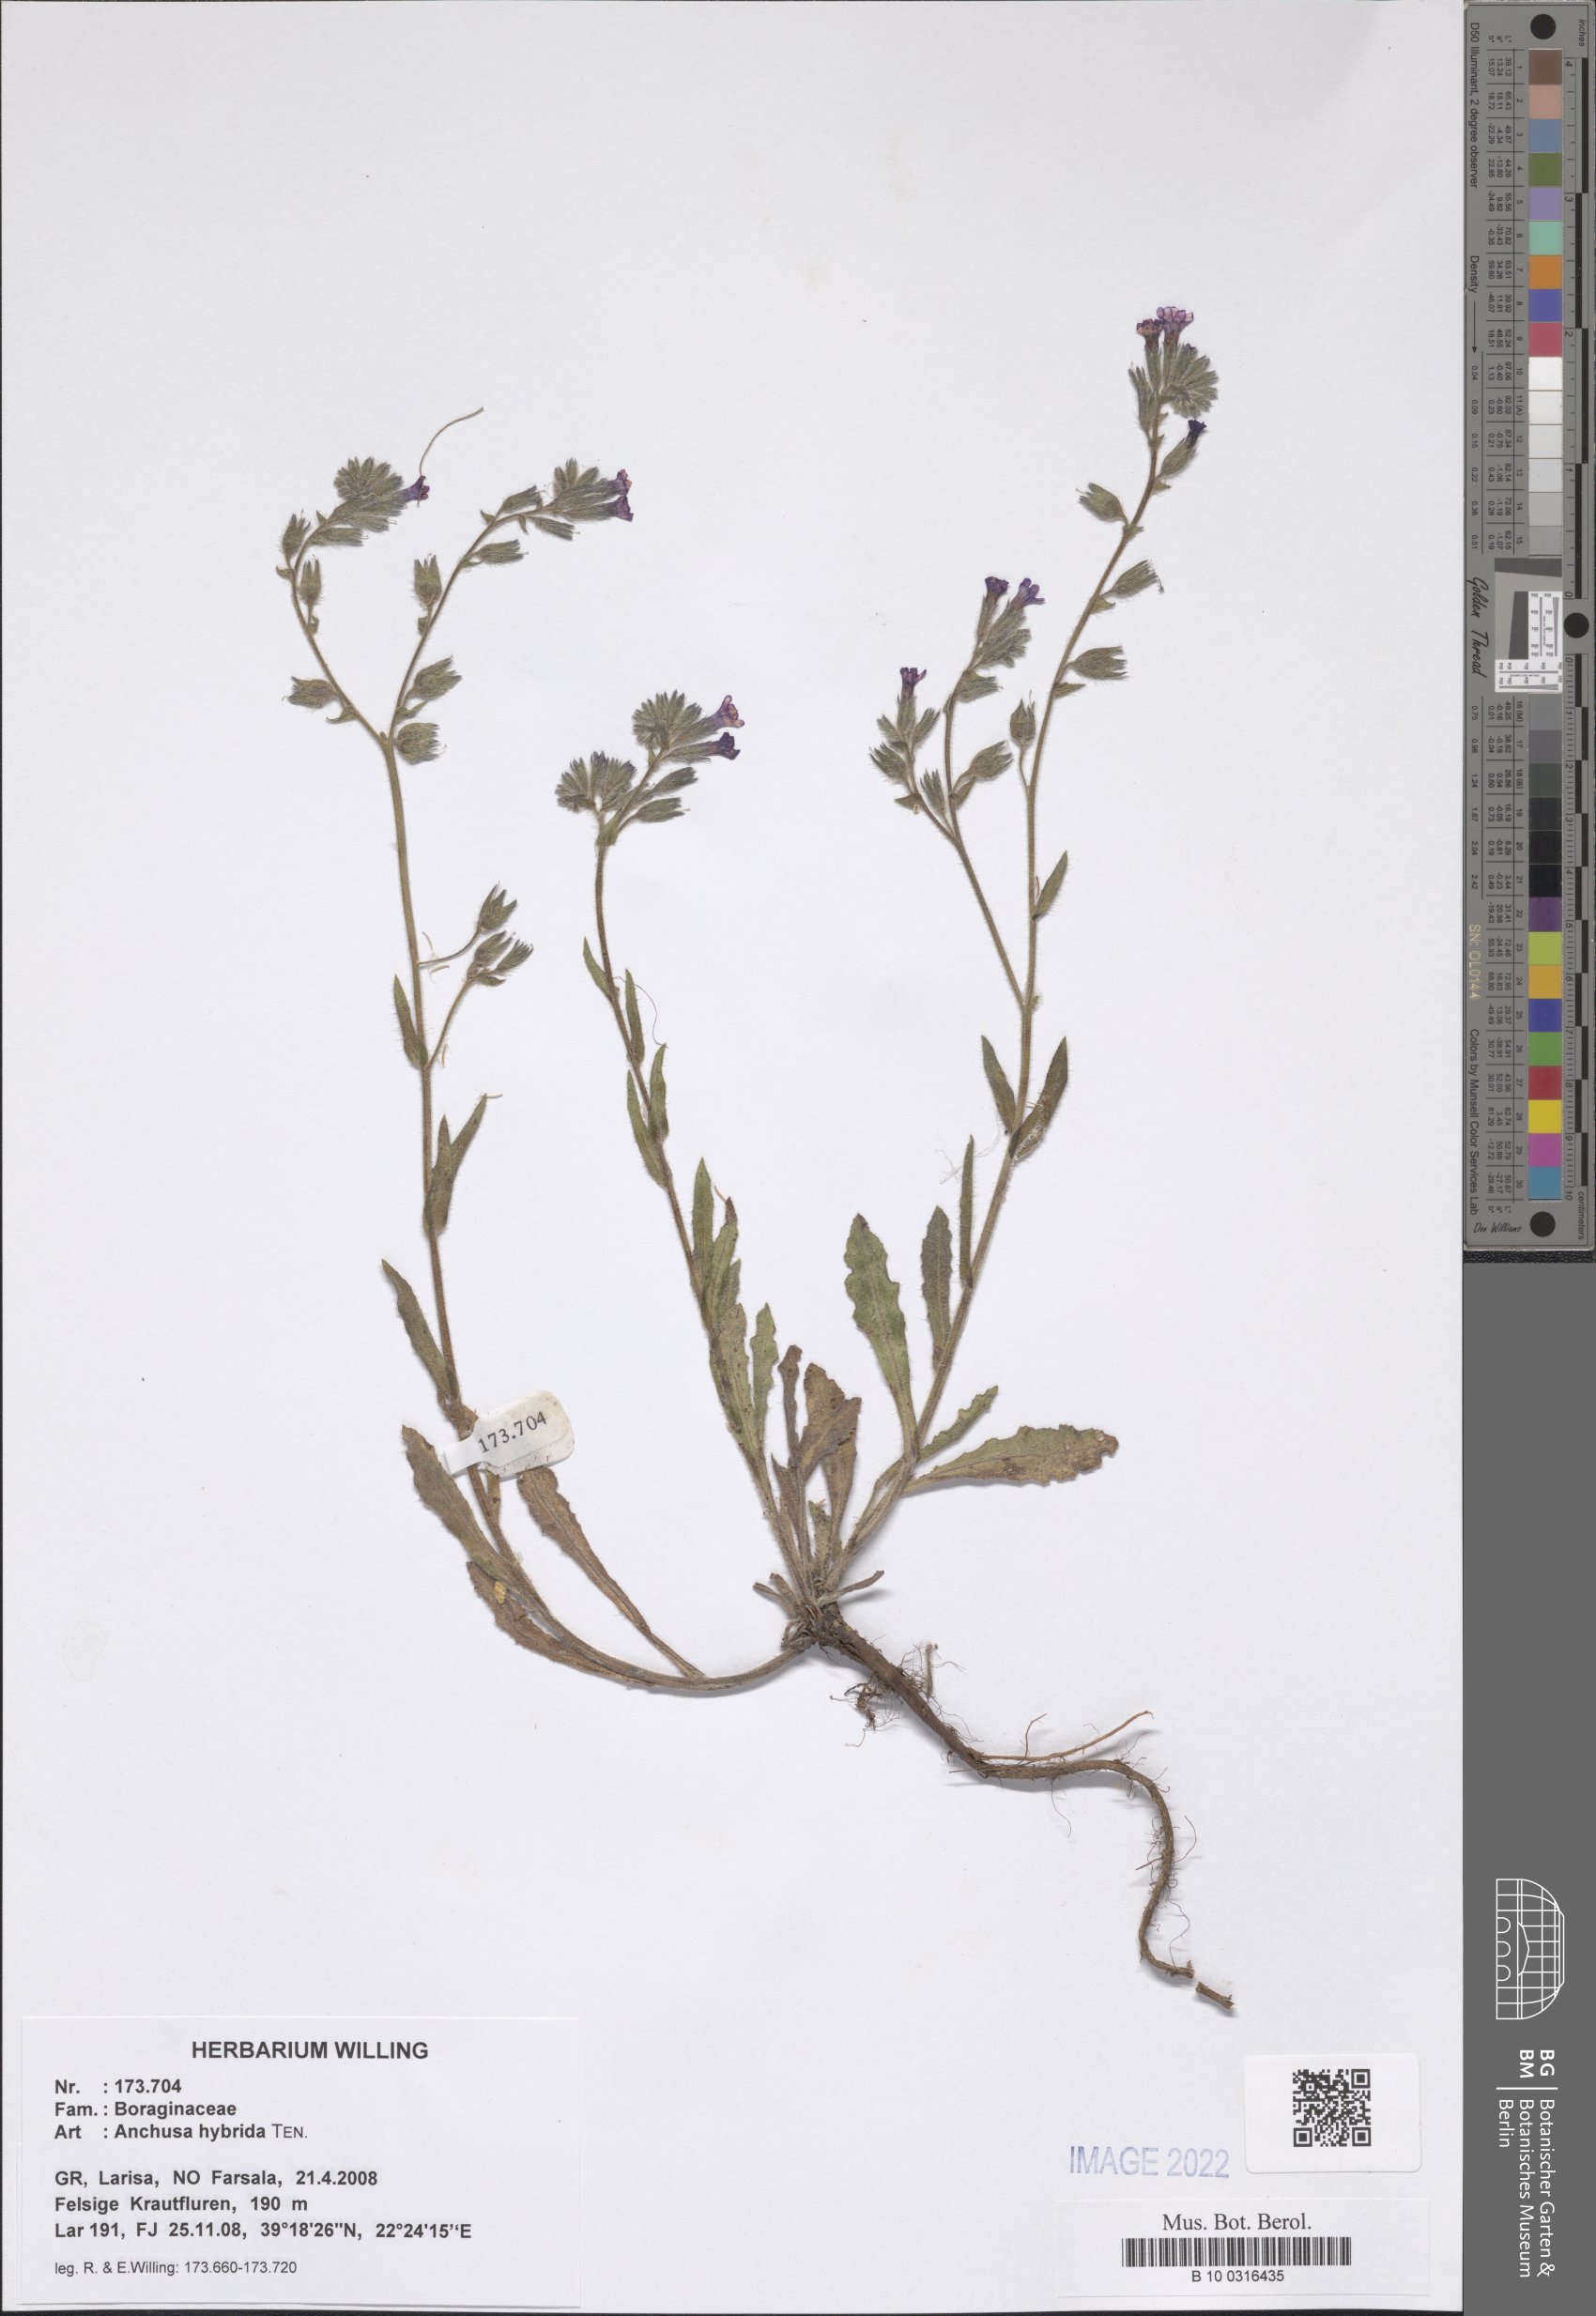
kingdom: Plantae
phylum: Tracheophyta
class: Magnoliopsida
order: Boraginales
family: Boraginaceae
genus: Anchusa
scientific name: Anchusa hybrida
